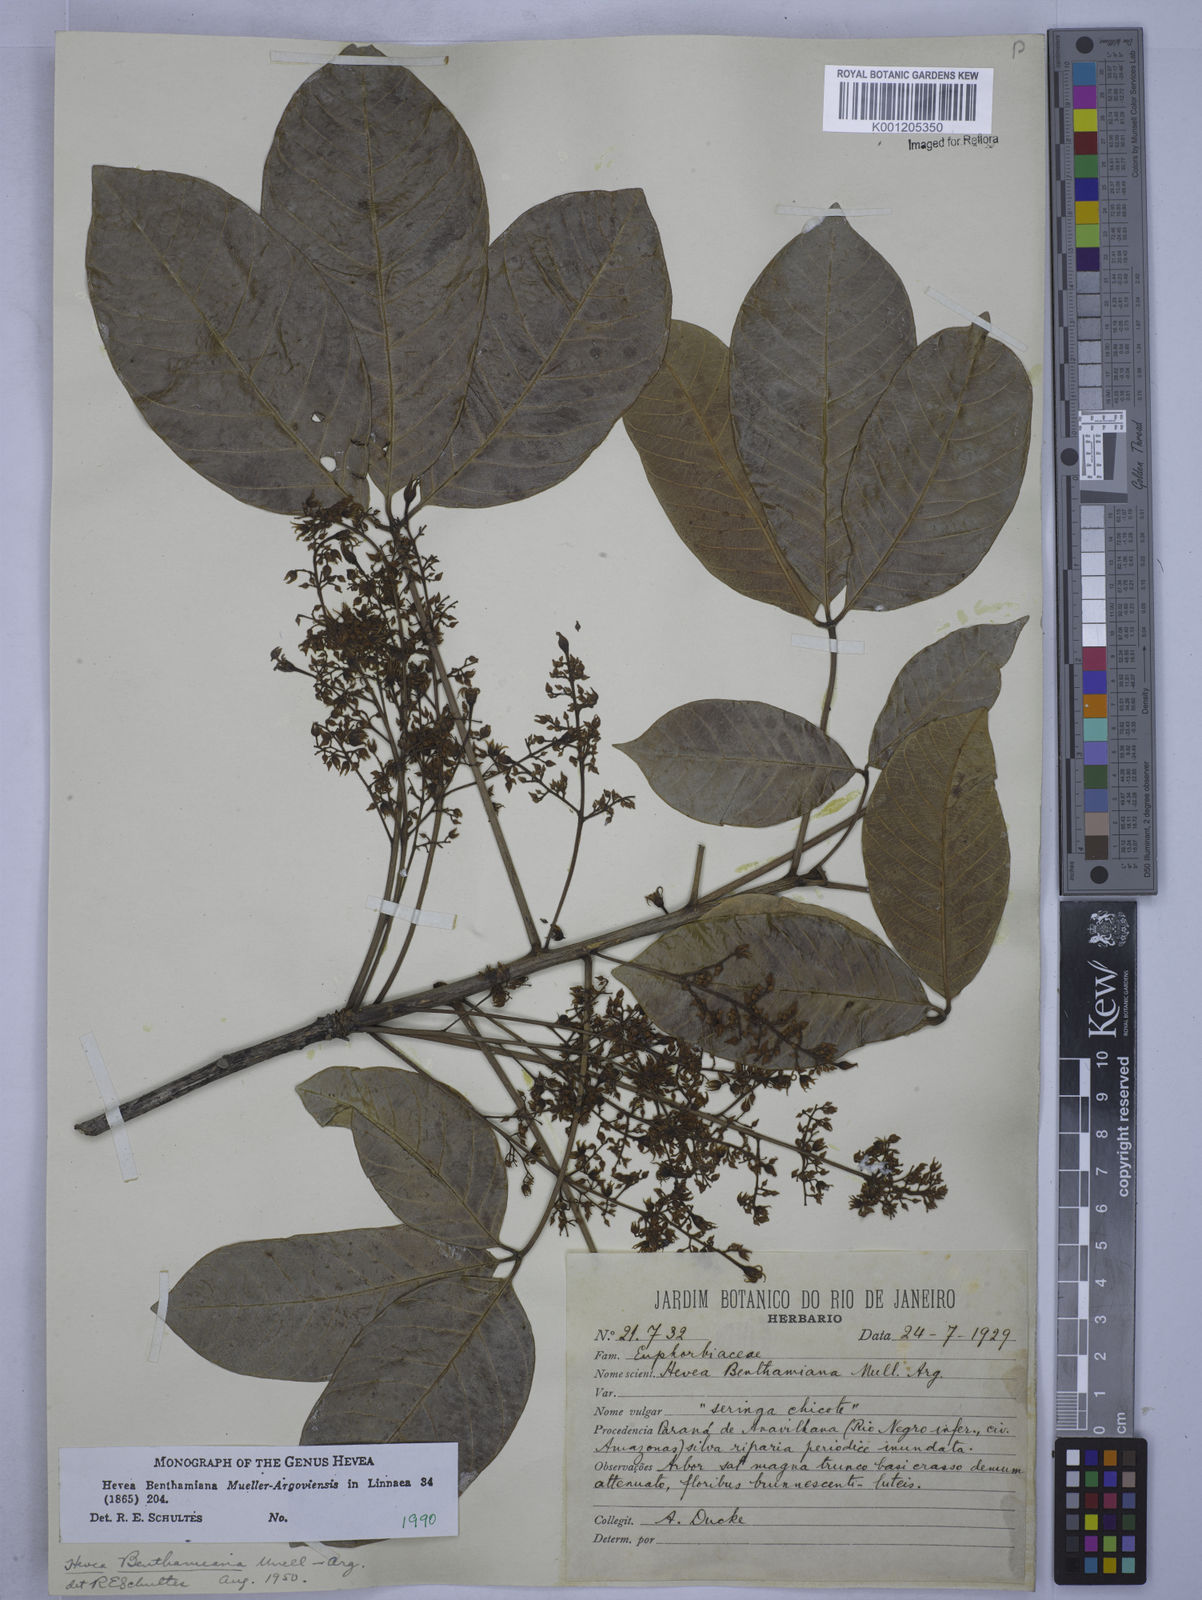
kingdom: Plantae
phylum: Tracheophyta
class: Magnoliopsida
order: Malpighiales
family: Euphorbiaceae
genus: Hevea
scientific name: Hevea
